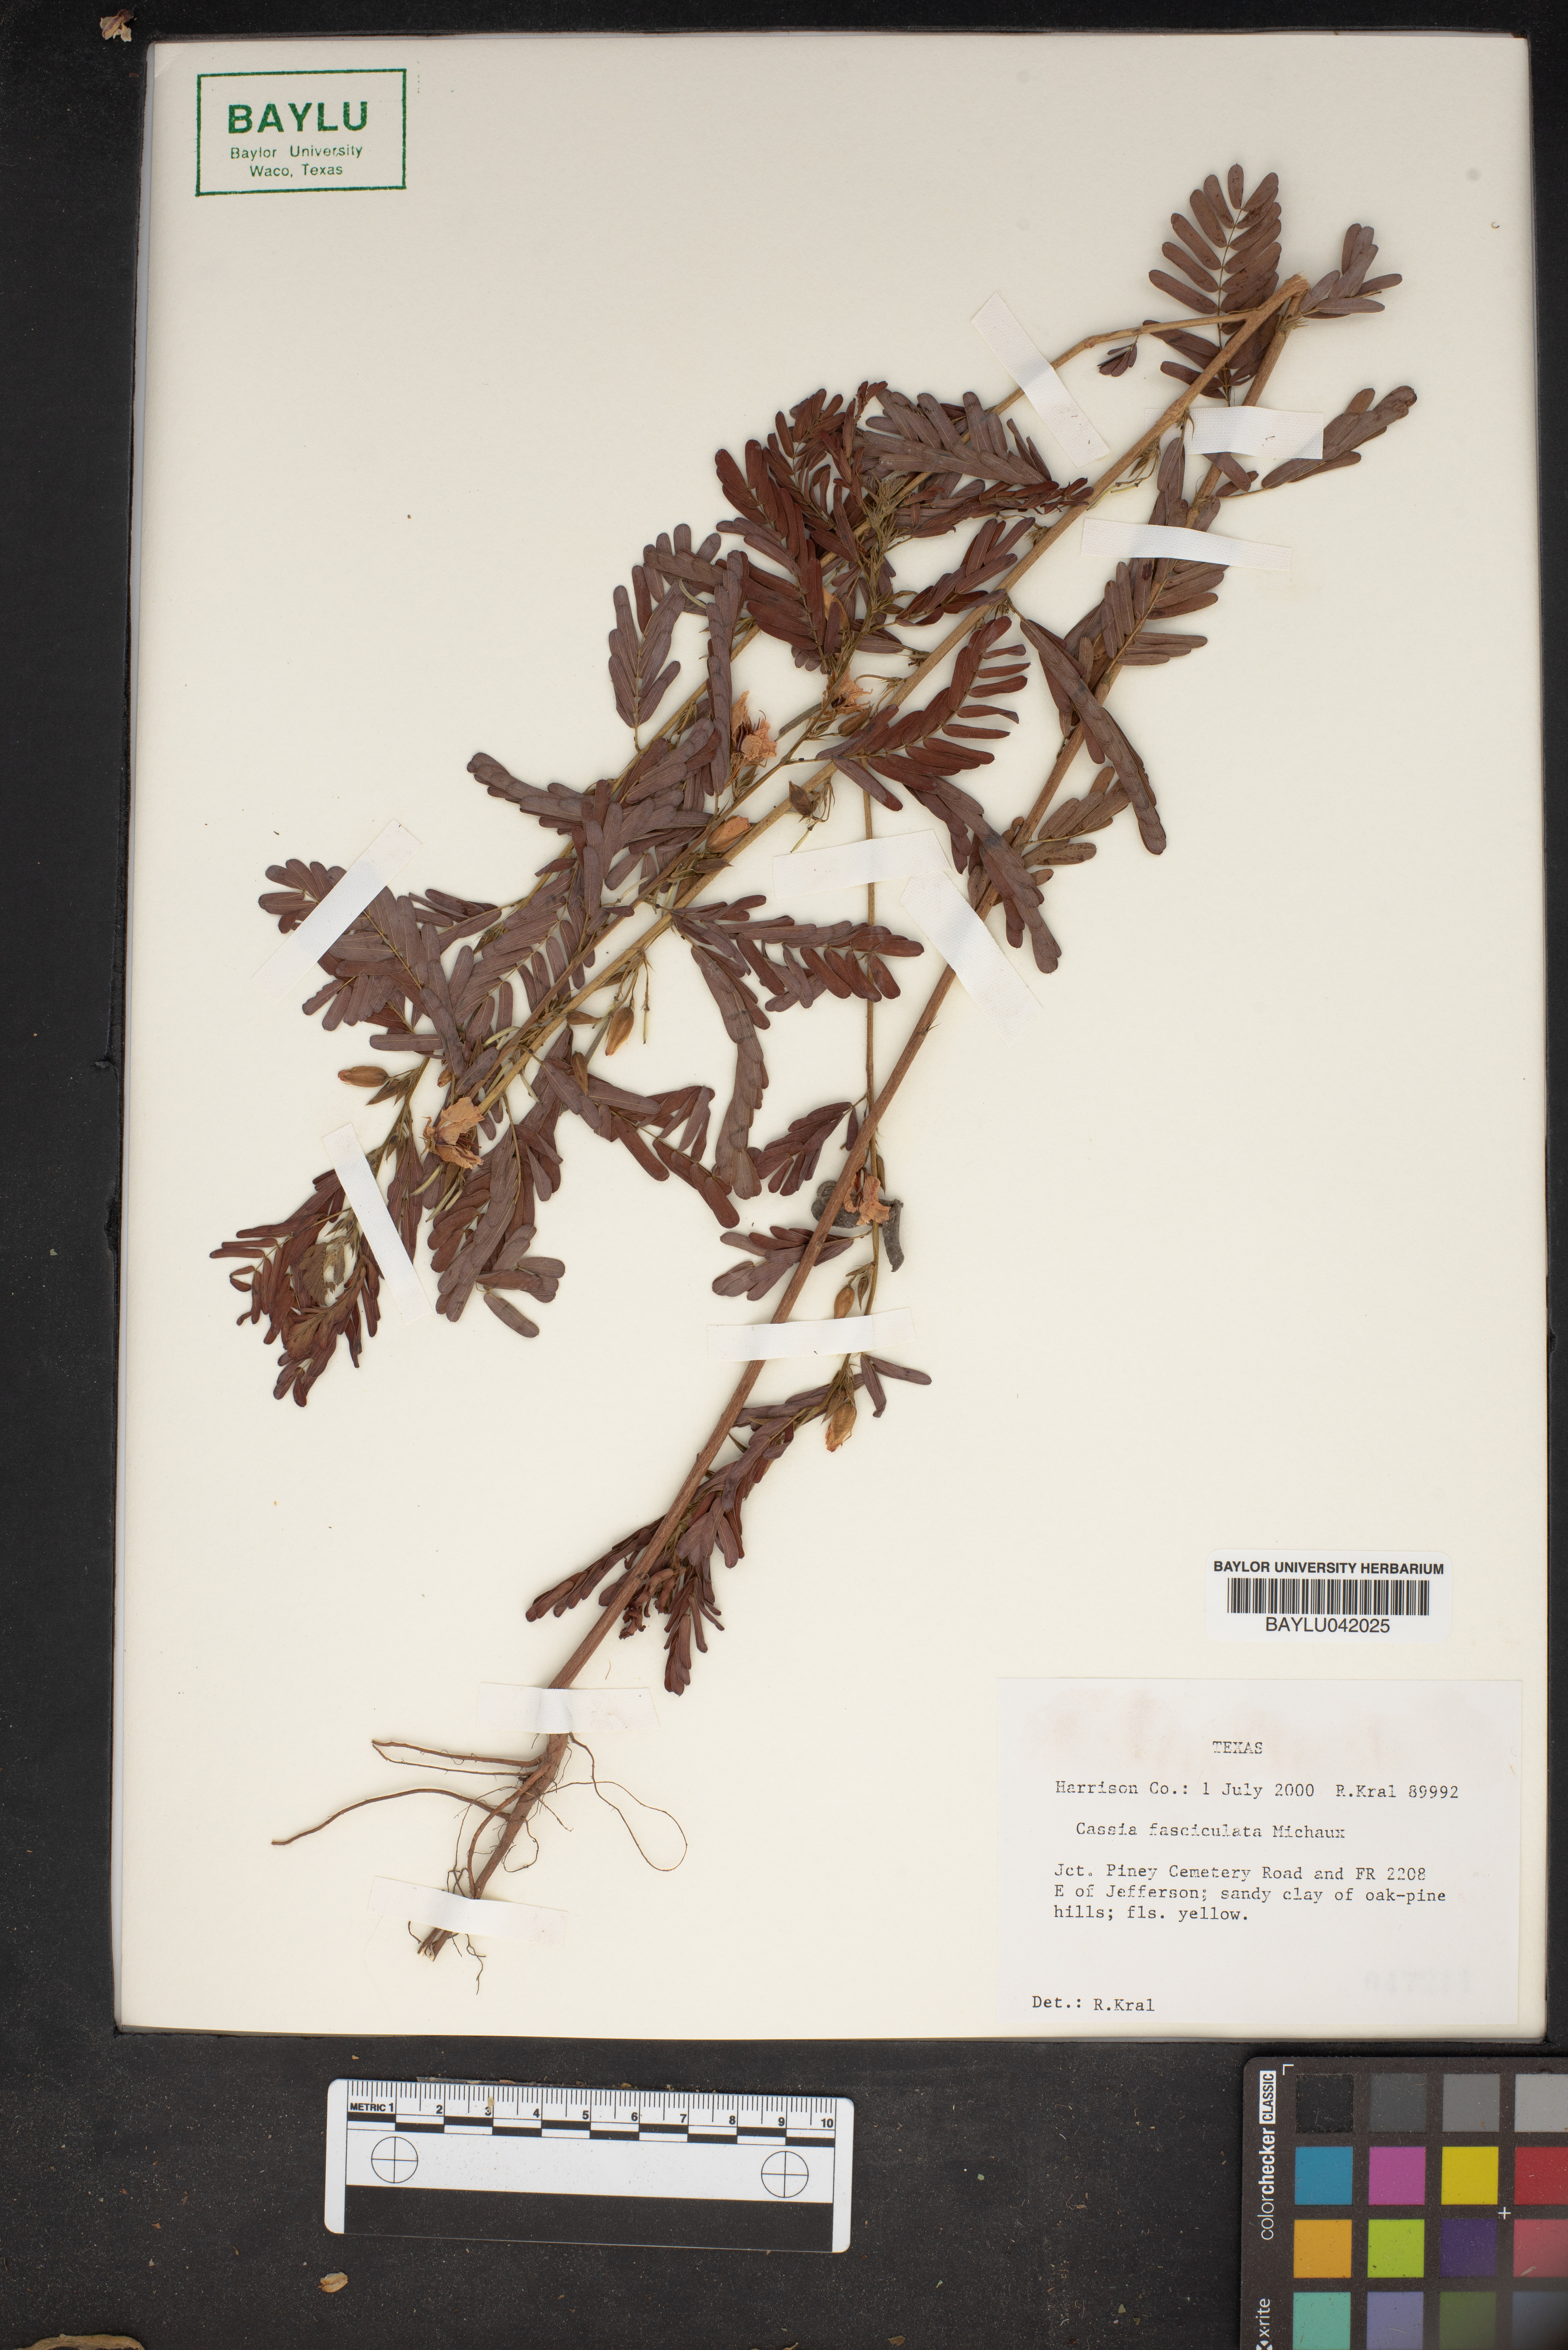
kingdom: Plantae
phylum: Tracheophyta
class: Magnoliopsida
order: Fabales
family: Fabaceae
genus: Chamaecrista
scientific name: Chamaecrista fasciculata
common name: Golden cassia
